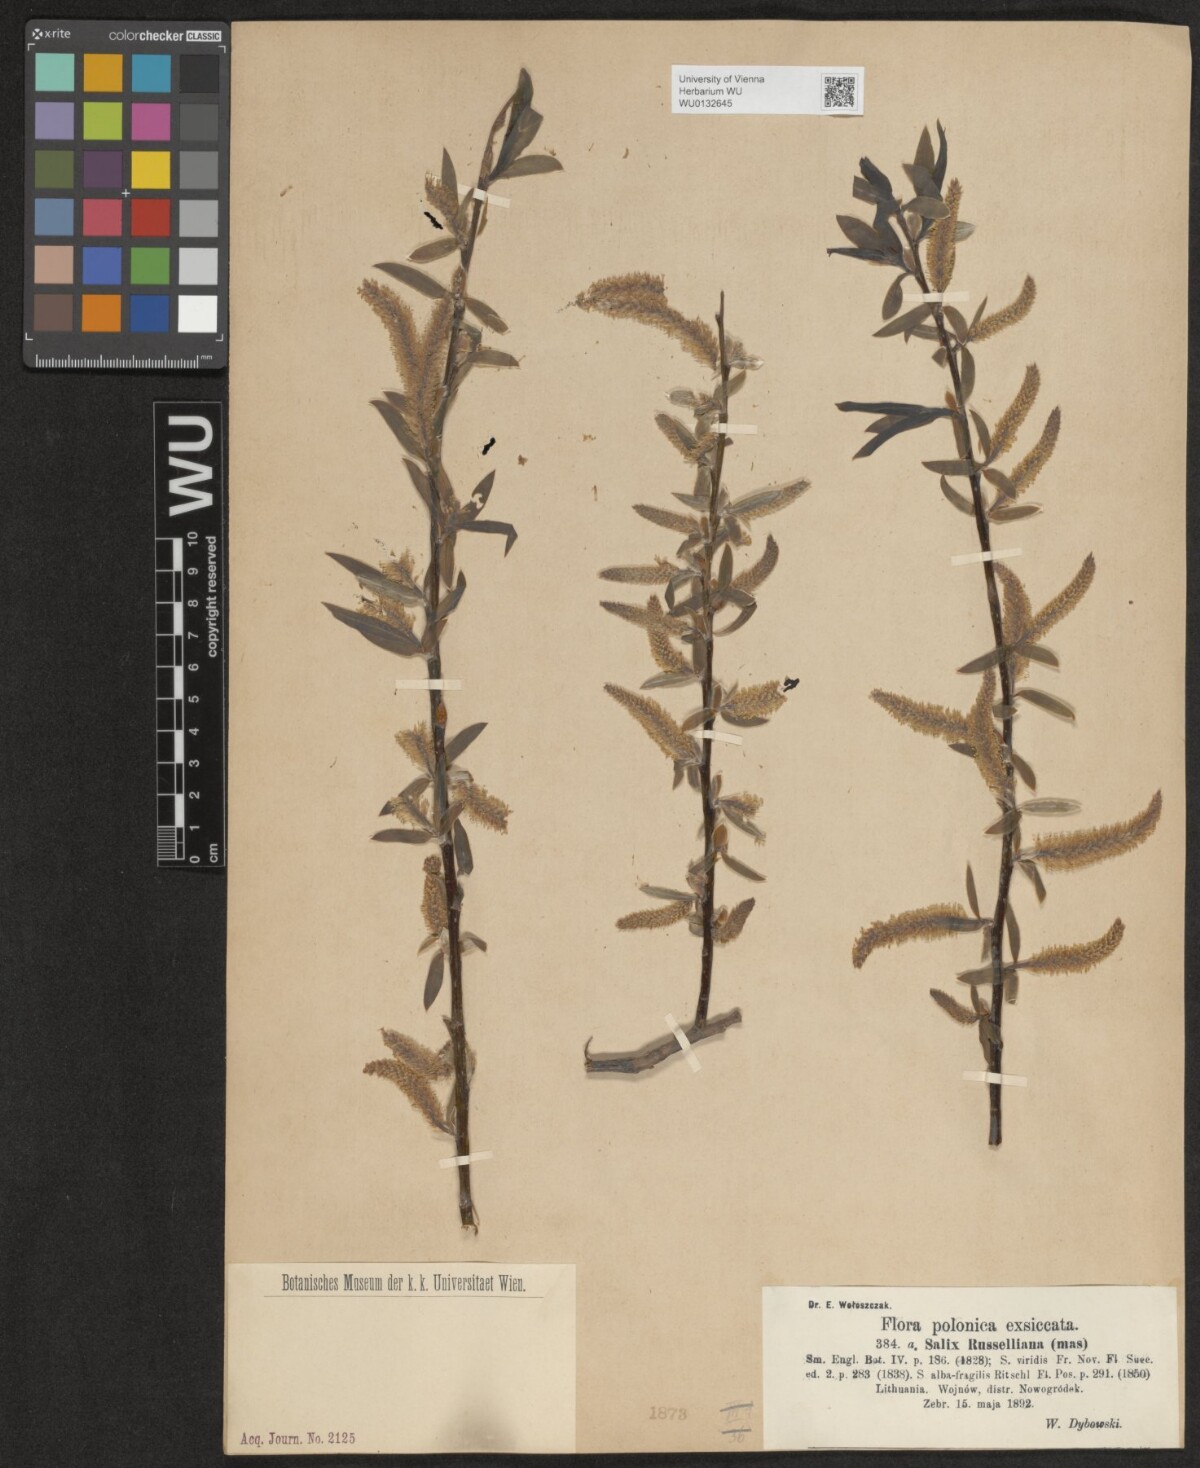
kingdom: Plantae
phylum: Tracheophyta
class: Magnoliopsida
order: Malpighiales
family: Salicaceae
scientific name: Salicaceae
